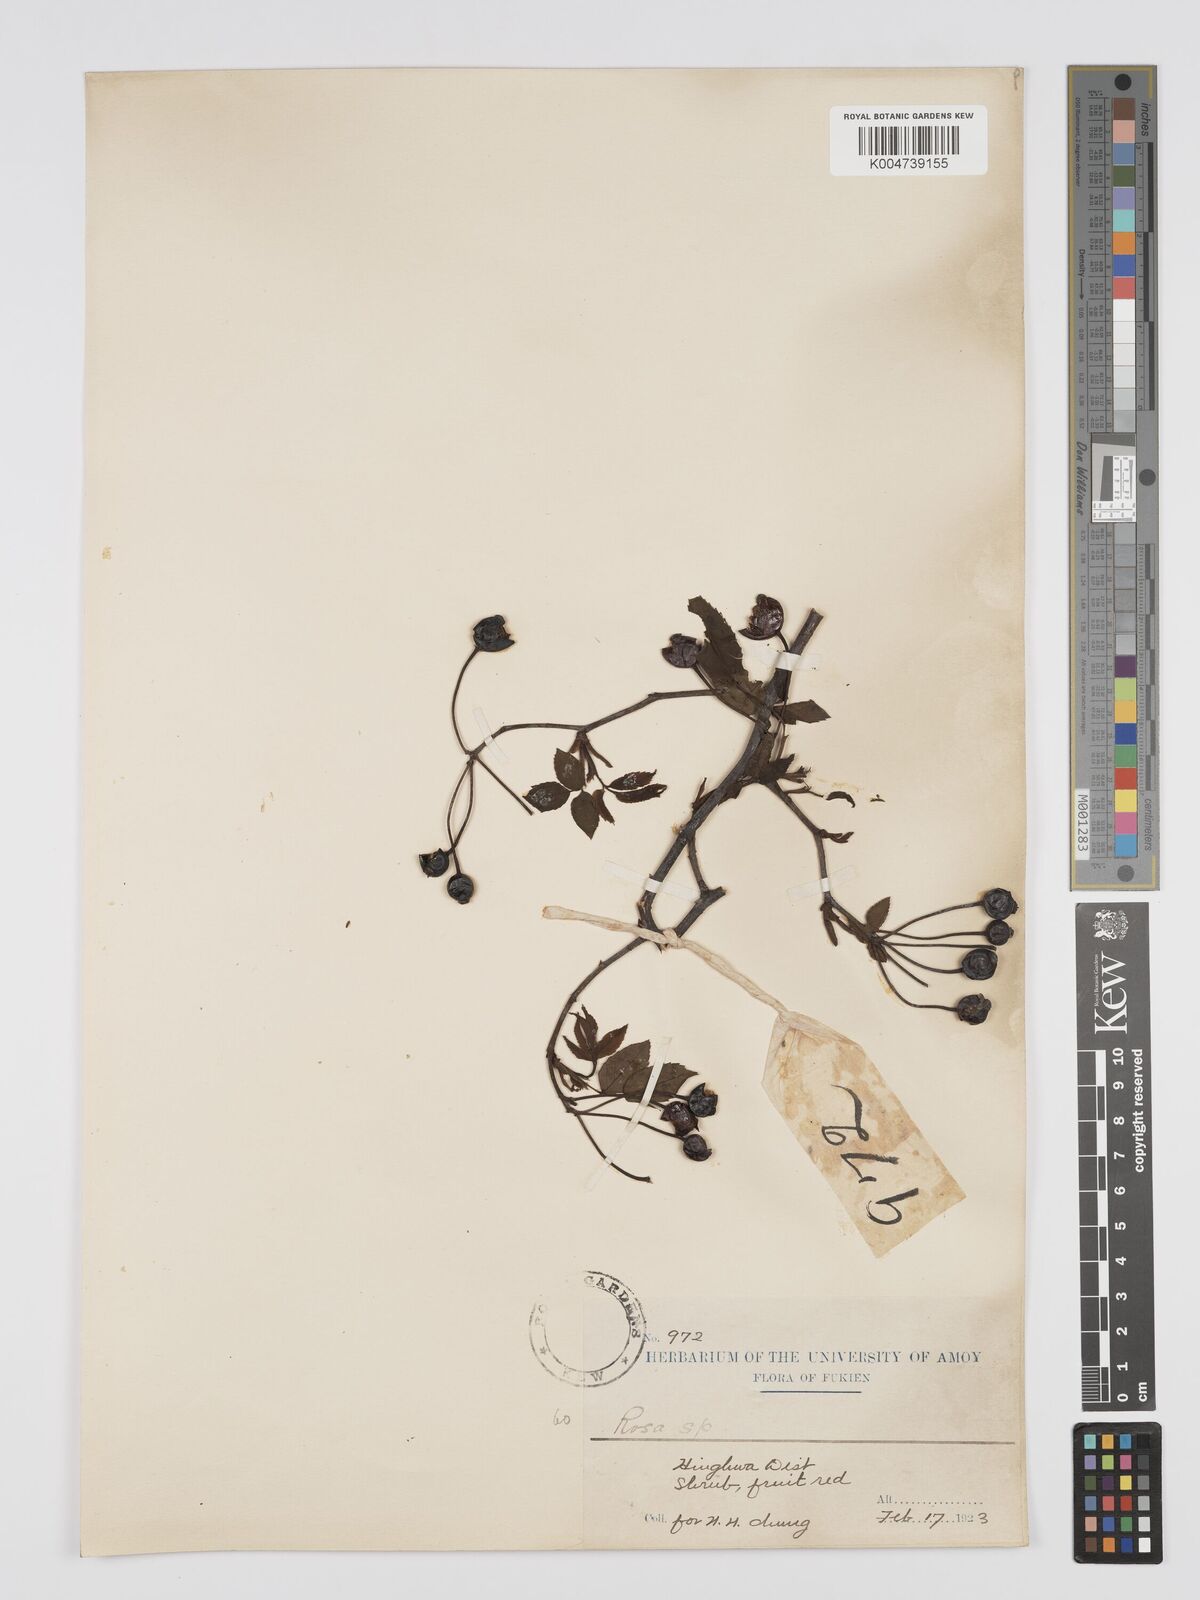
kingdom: Plantae
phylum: Tracheophyta
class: Magnoliopsida
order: Rosales
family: Rosaceae
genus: Rosa
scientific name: Rosa henryi
